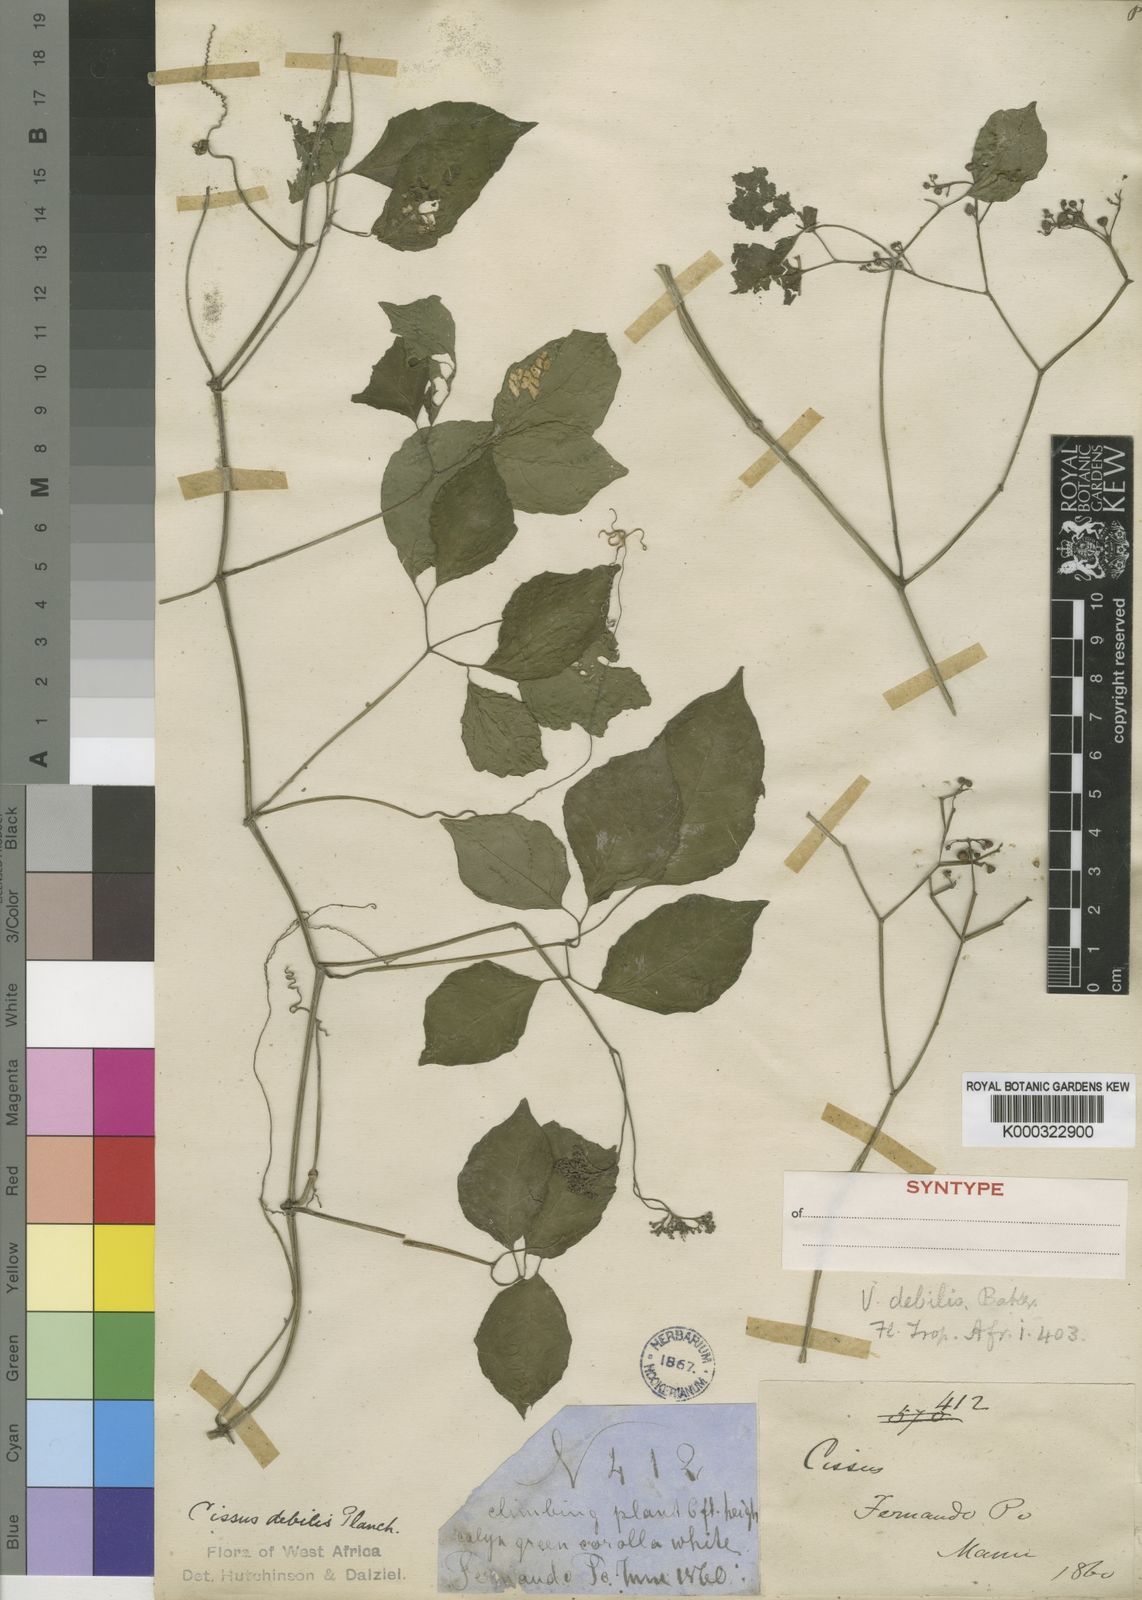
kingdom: Plantae
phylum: Tracheophyta
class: Magnoliopsida
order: Vitales
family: Vitaceae
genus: Afrocayratia
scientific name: Afrocayratia debilis
